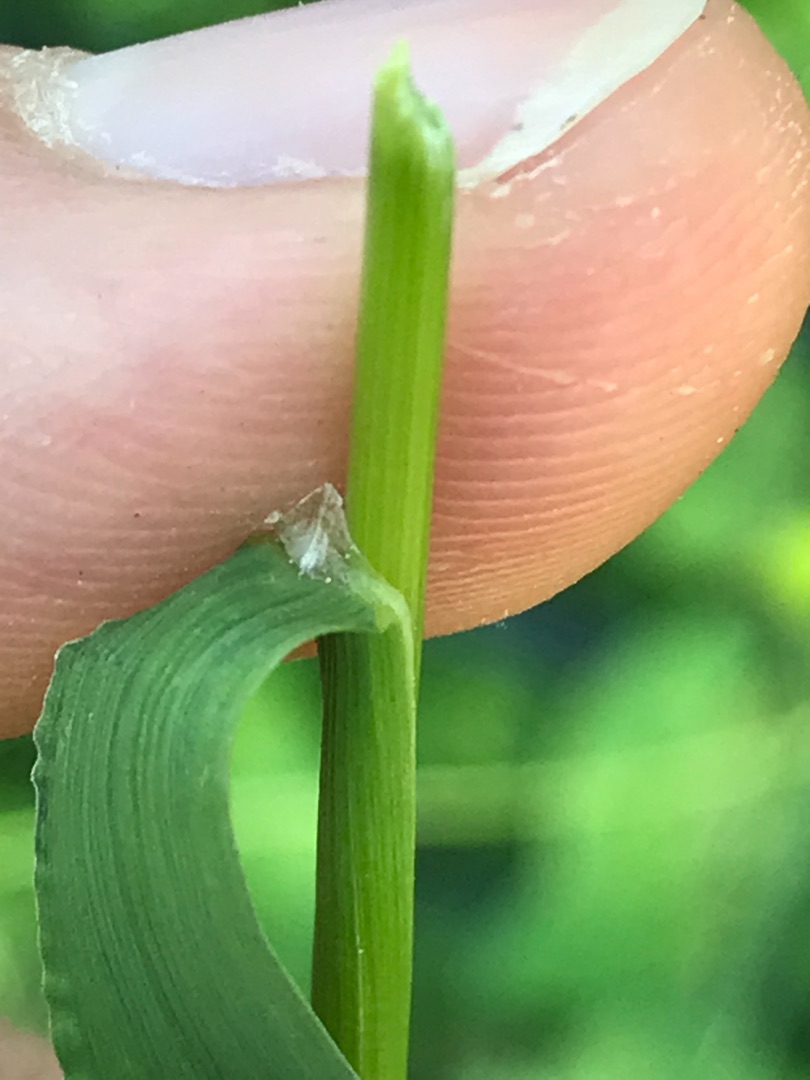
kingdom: Plantae
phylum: Tracheophyta
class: Liliopsida
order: Poales
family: Poaceae
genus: Agrostis
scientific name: Agrostis capillaris
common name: Almindelig hvene
